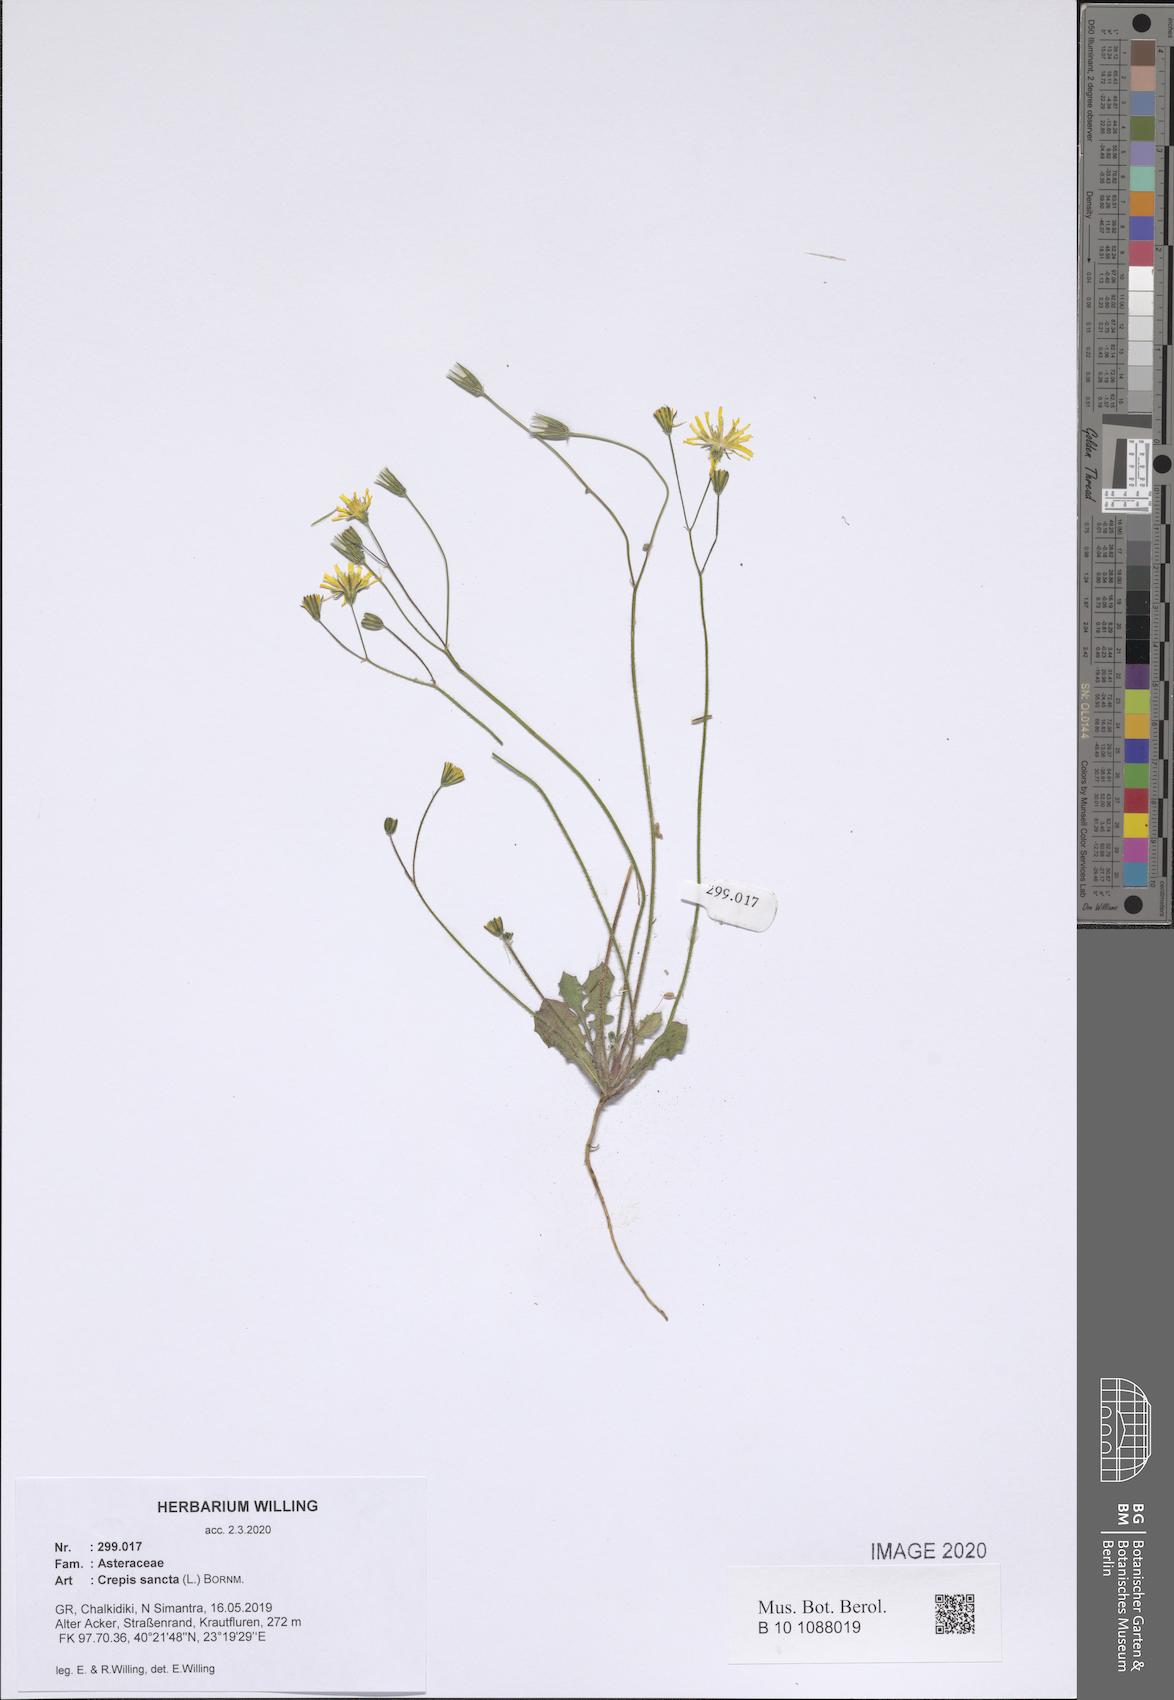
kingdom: Plantae
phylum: Tracheophyta
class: Magnoliopsida
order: Asterales
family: Asteraceae
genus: Crepis
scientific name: Crepis sancta
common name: Hawk's-beard
